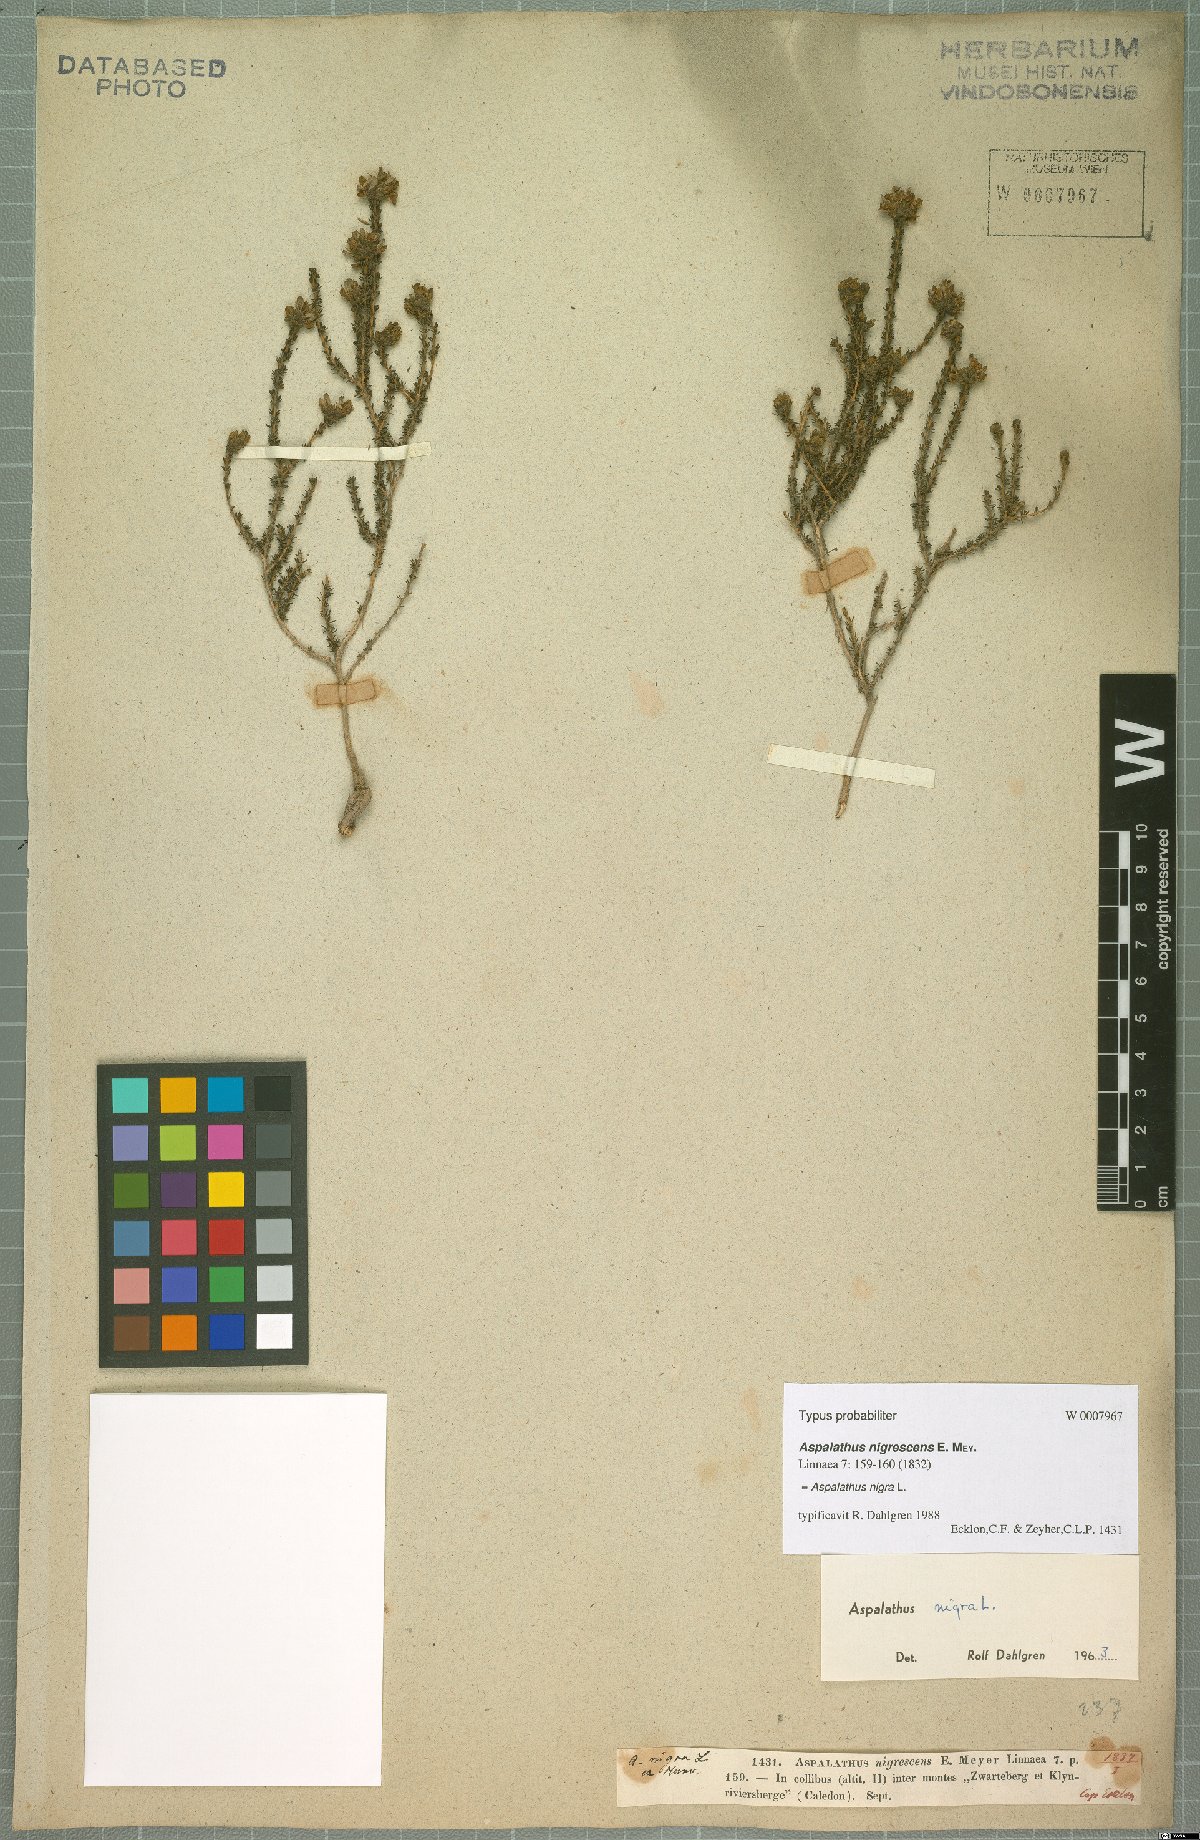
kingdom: Plantae
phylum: Tracheophyta
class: Magnoliopsida
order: Fabales
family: Fabaceae
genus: Aspalathus
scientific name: Aspalathus nigra
